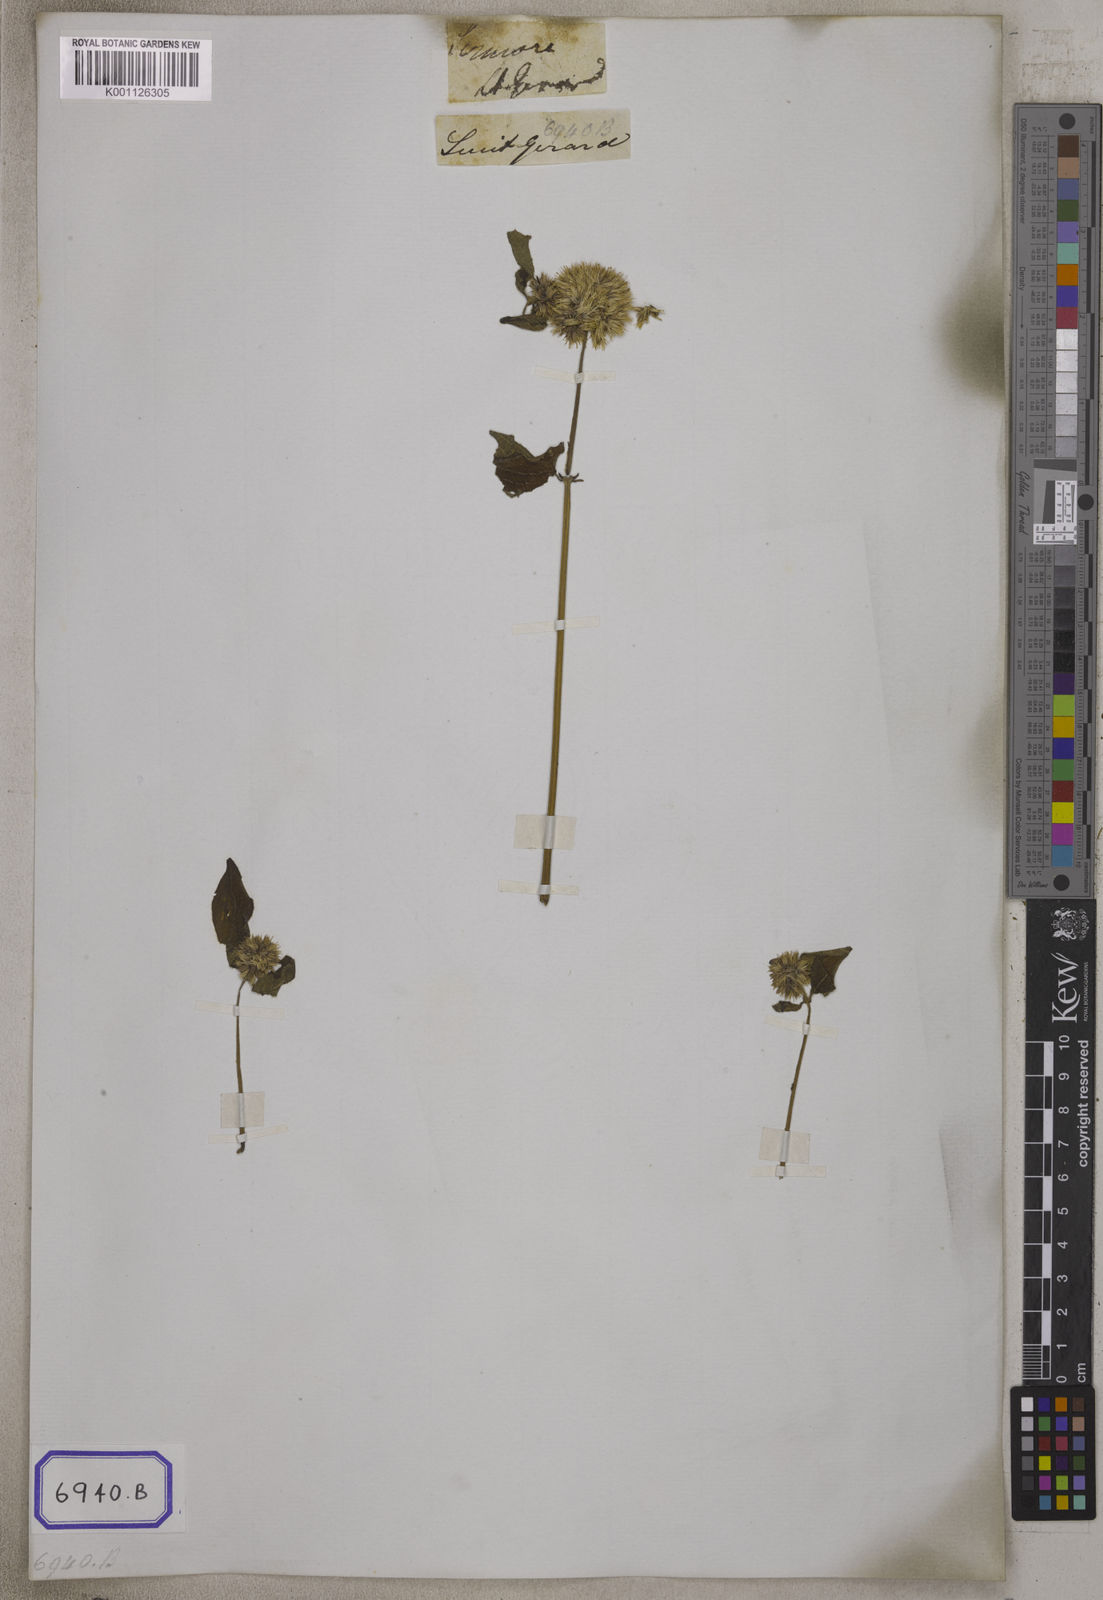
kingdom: Plantae
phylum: Tracheophyta
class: Magnoliopsida
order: Caryophyllales
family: Amaranthaceae
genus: Cyathula
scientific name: Cyathula capitata
